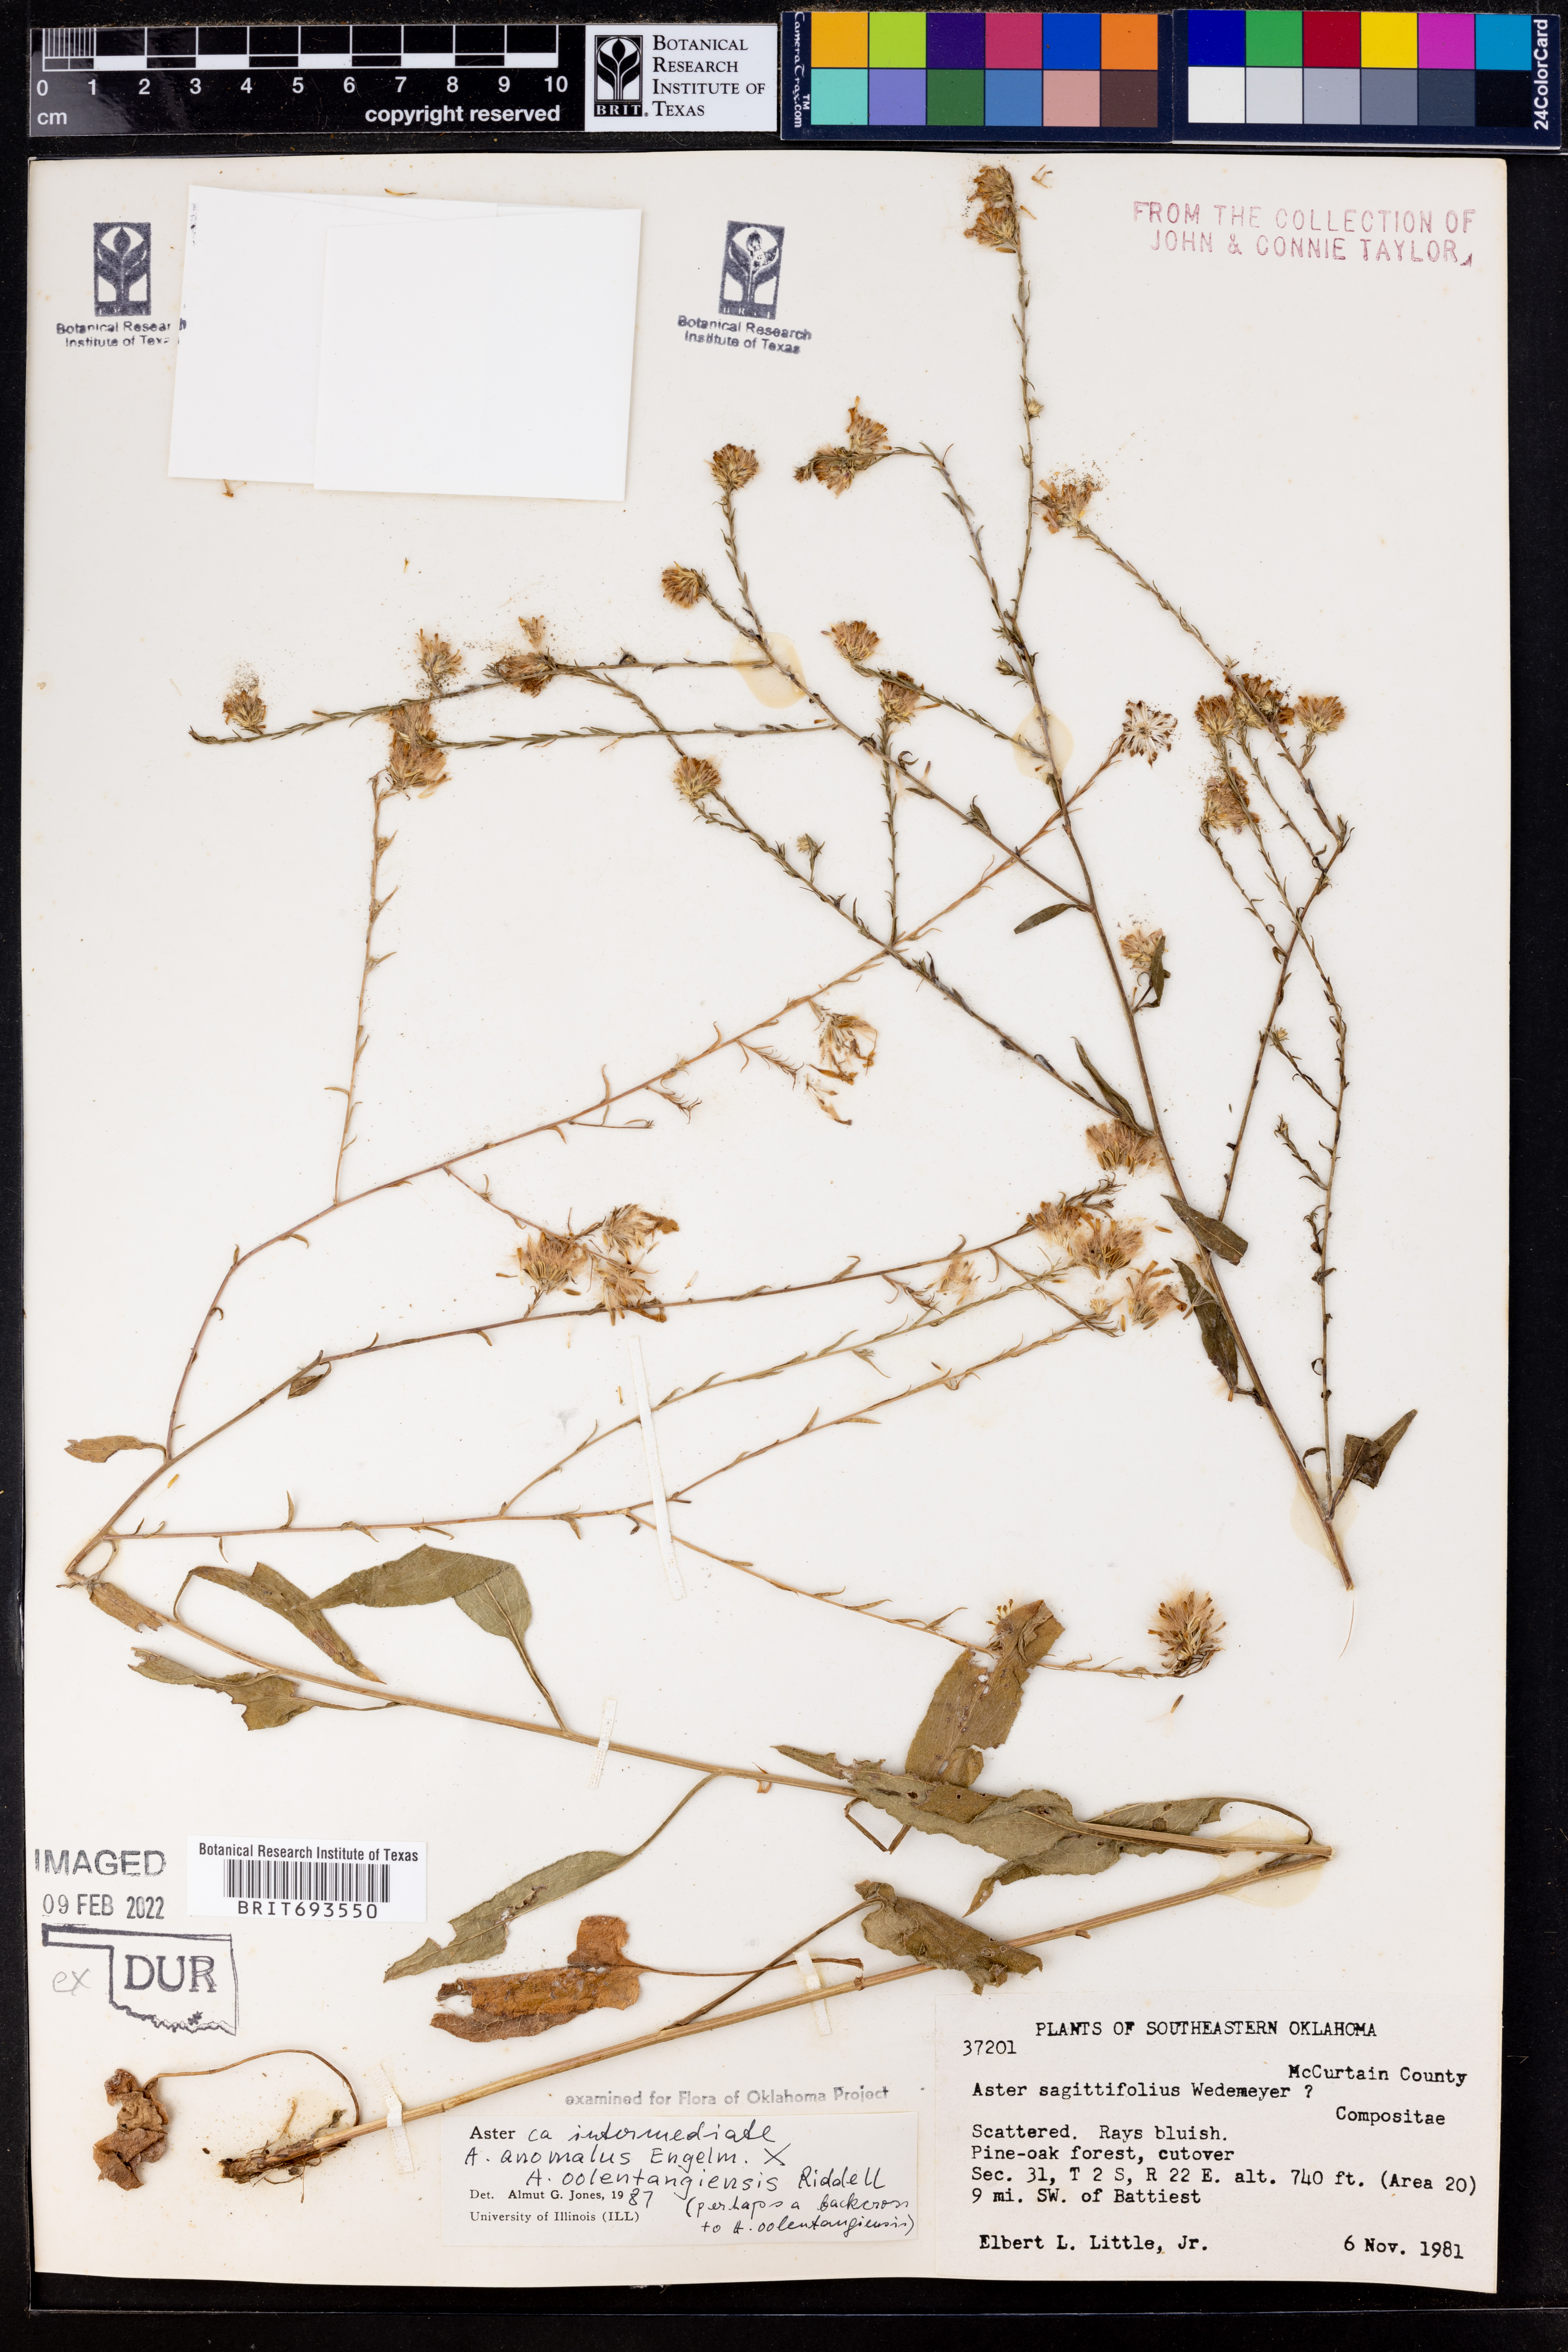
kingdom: Plantae
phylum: Tracheophyta
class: Magnoliopsida
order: Asterales
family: Asteraceae
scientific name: Asteraceae
